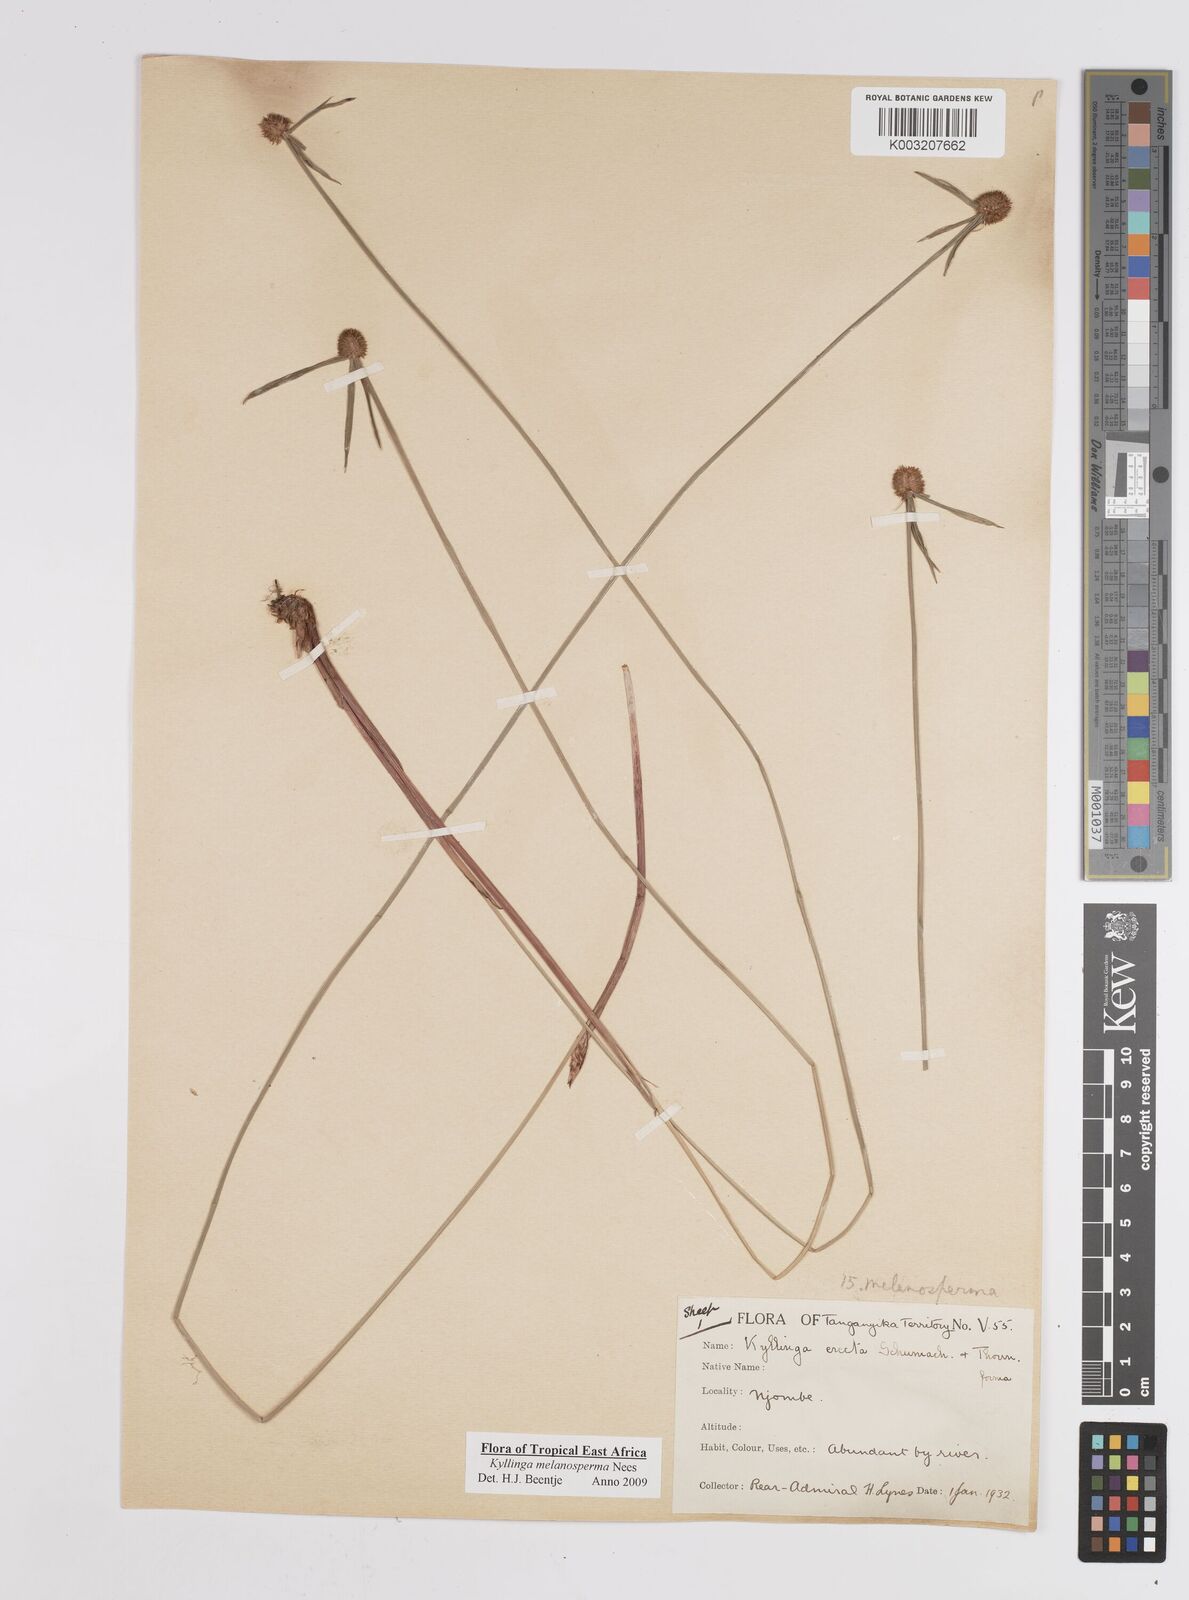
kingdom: Plantae
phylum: Tracheophyta
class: Liliopsida
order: Poales
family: Cyperaceae
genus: Cyperus
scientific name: Cyperus melanospermus
